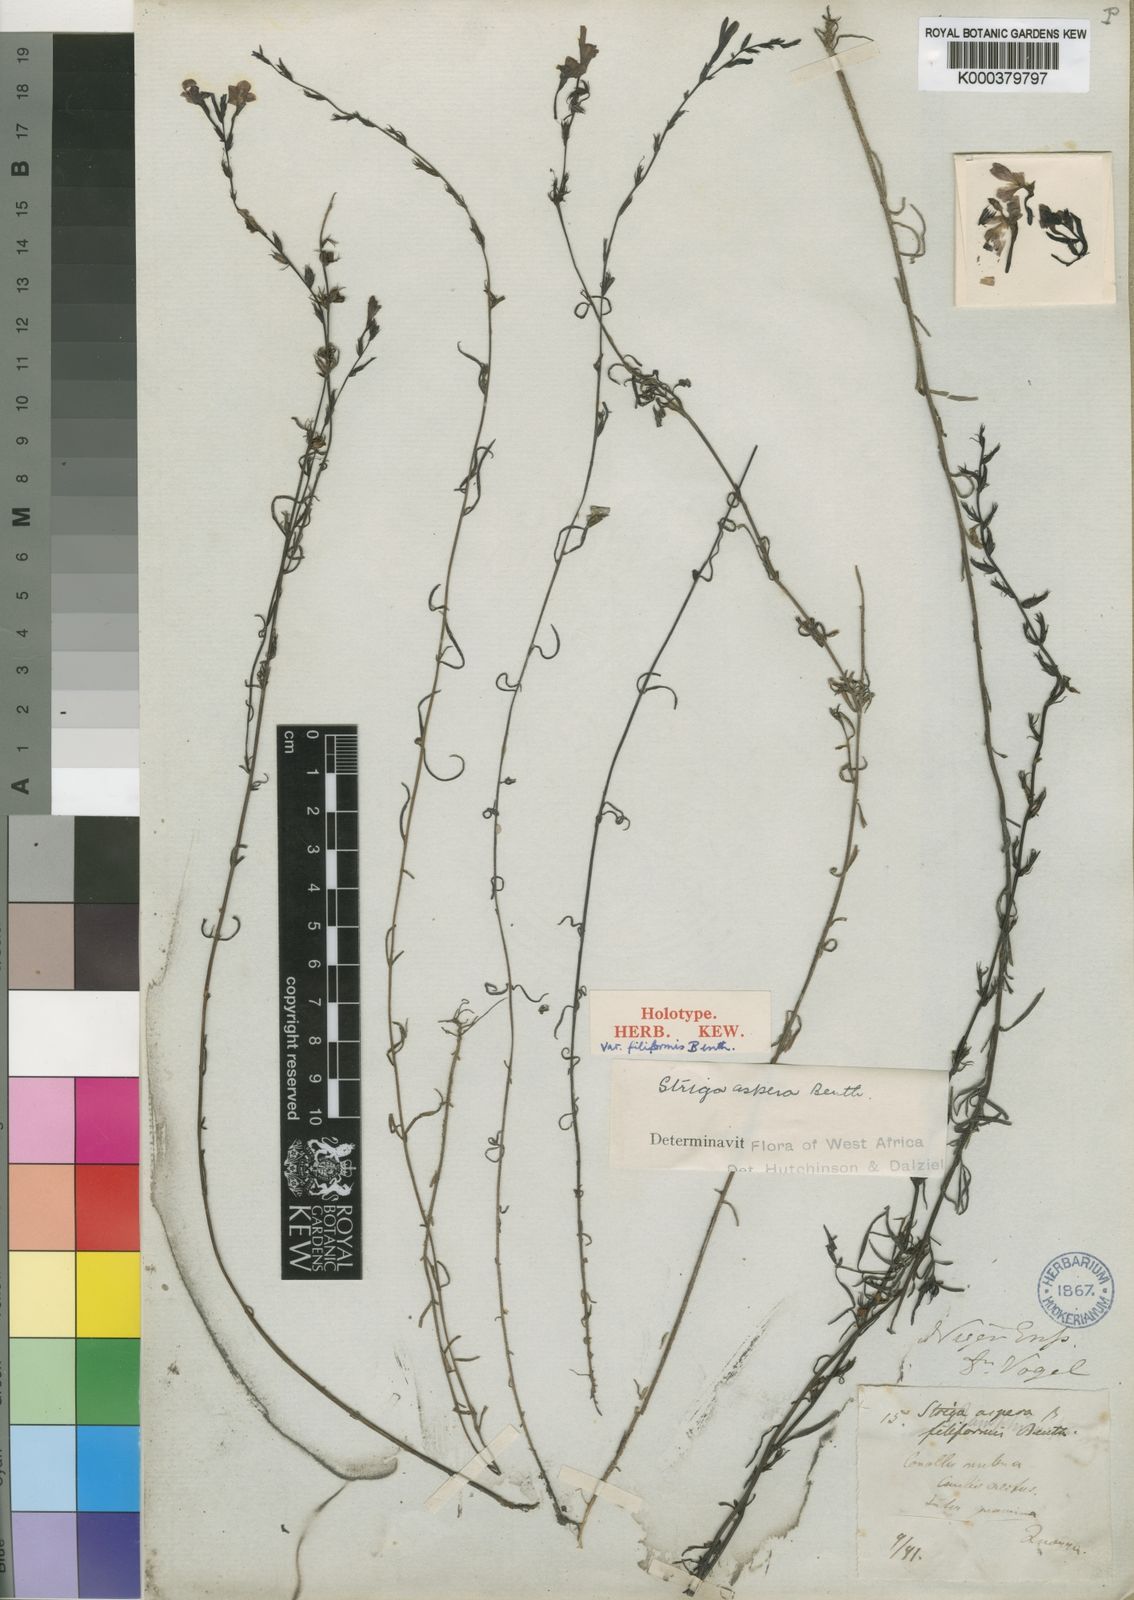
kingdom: Plantae
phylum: Tracheophyta
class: Magnoliopsida
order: Lamiales
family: Orobanchaceae
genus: Striga
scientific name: Striga aspera
